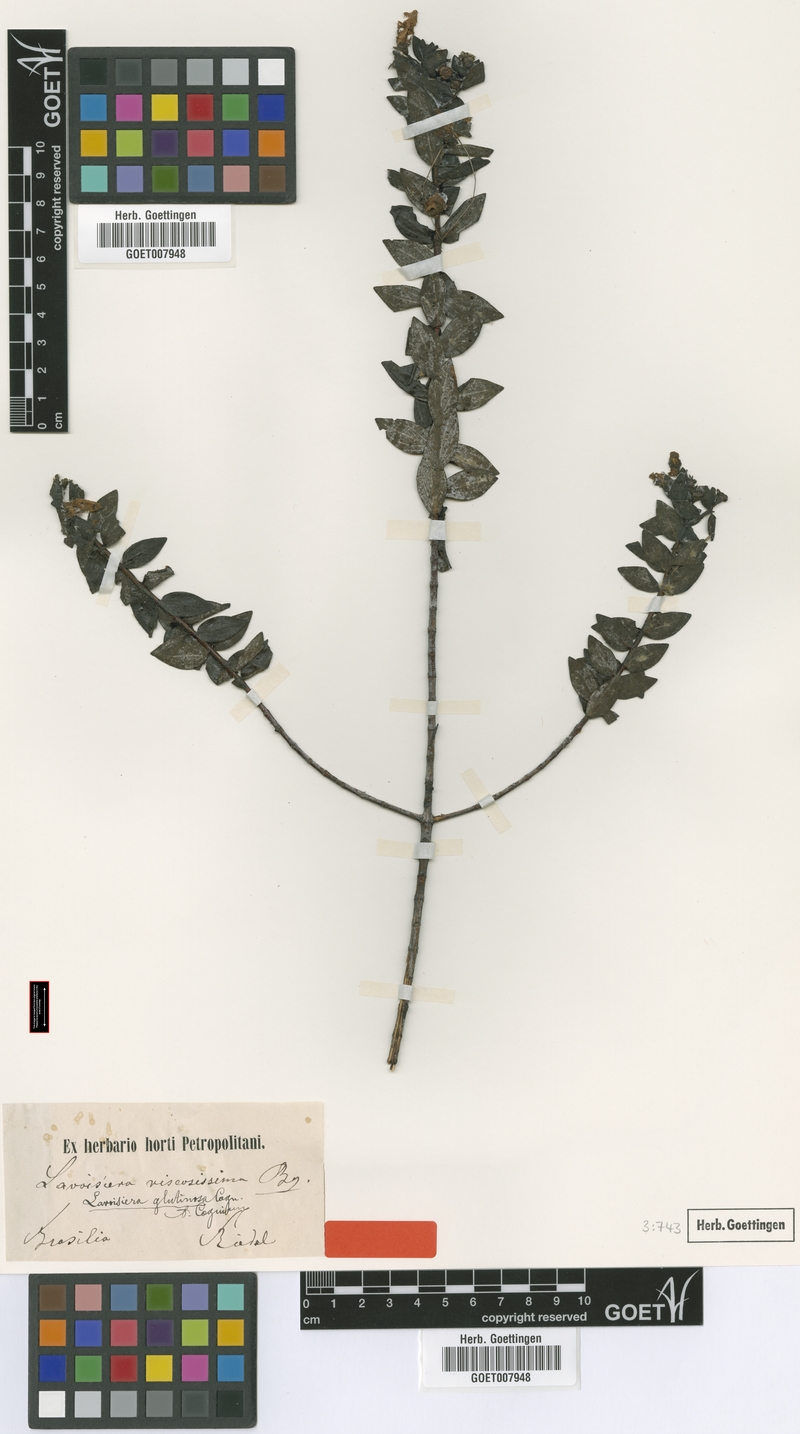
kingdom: Plantae
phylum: Tracheophyta
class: Magnoliopsida
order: Myrtales
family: Melastomataceae
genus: Microlicia
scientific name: Microlicia longipedicellata
